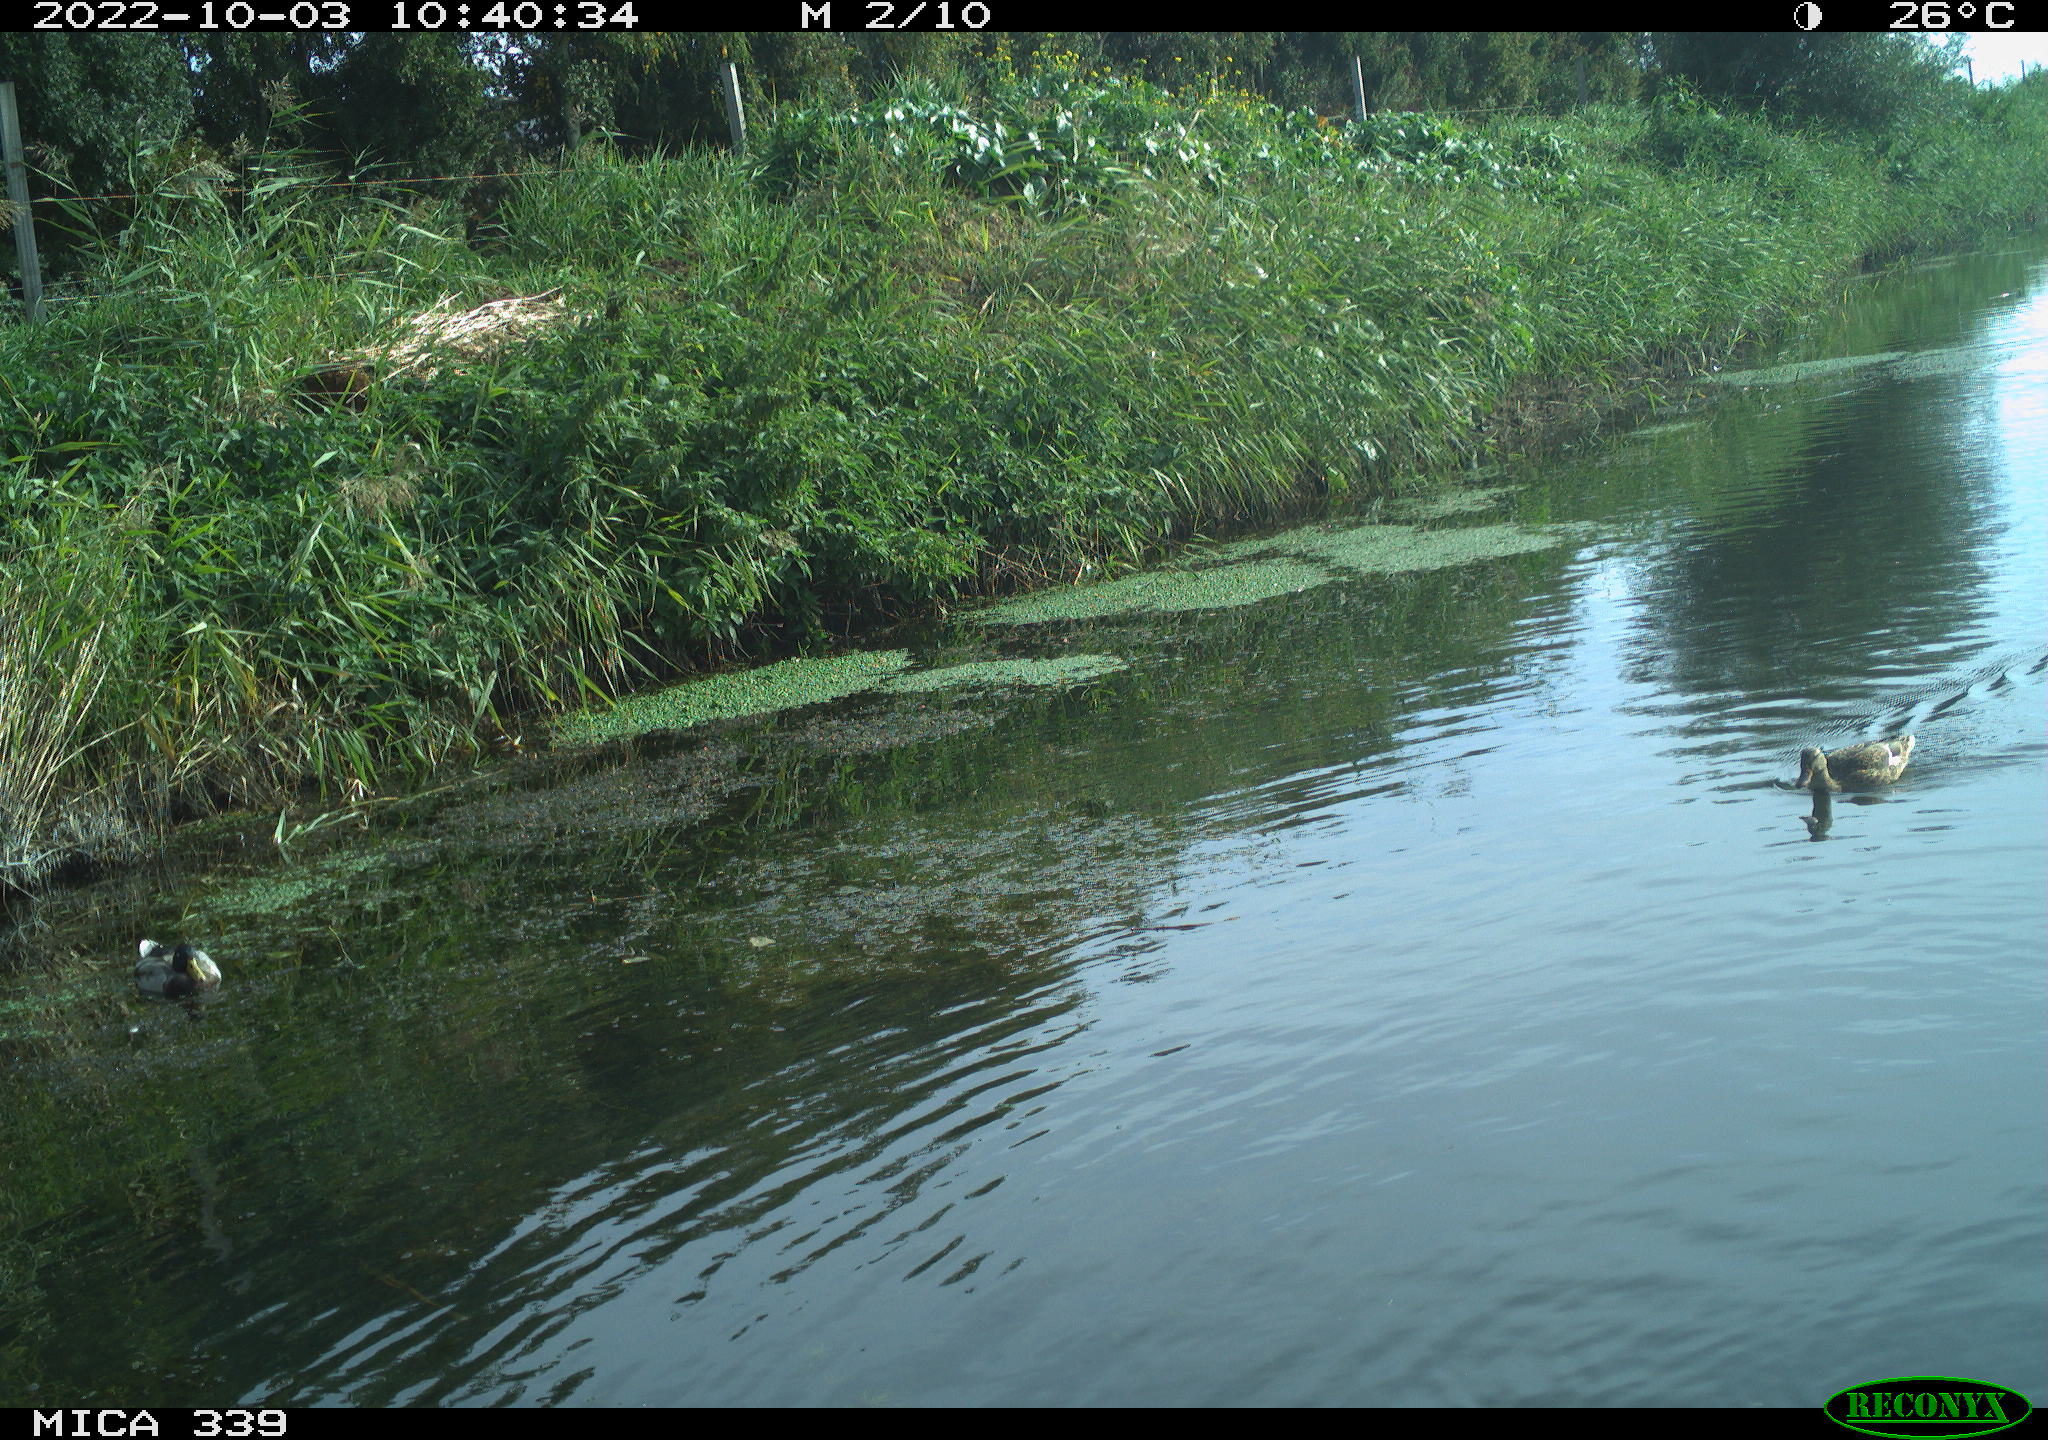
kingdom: Animalia
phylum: Chordata
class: Aves
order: Anseriformes
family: Anatidae
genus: Anas
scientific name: Anas platyrhynchos
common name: Mallard
